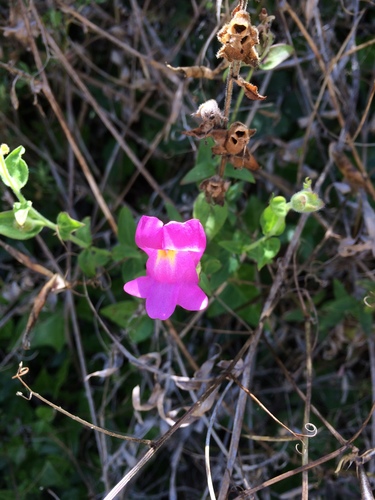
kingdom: Plantae
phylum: Tracheophyta
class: Magnoliopsida
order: Lamiales
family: Plantaginaceae
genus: Antirrhinum
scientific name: Antirrhinum linkianum
